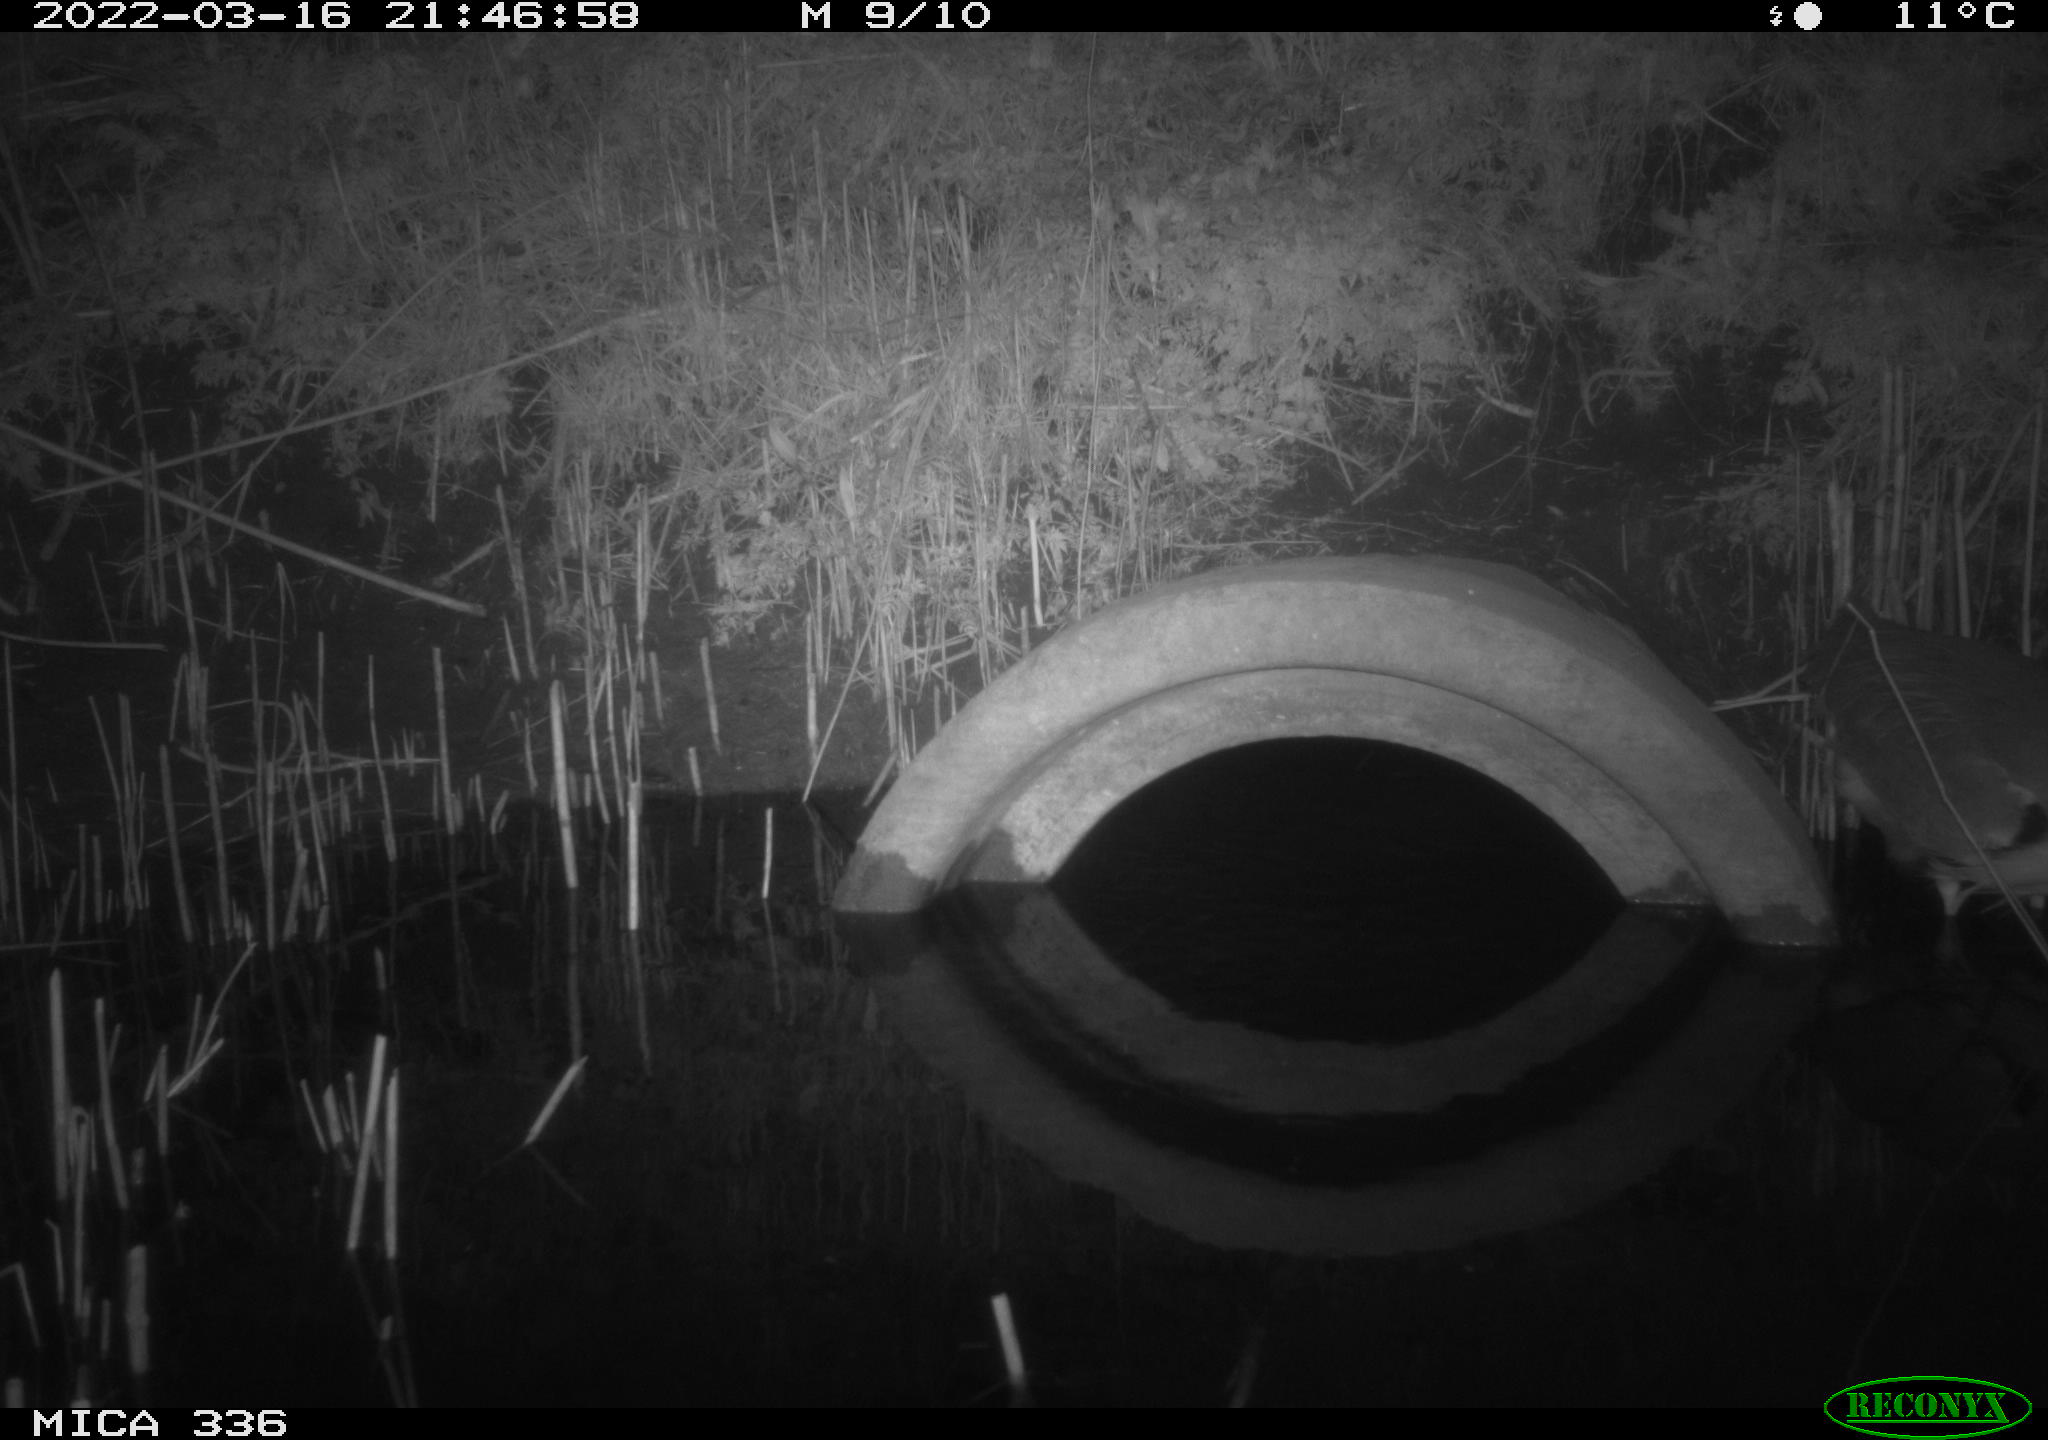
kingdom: Animalia
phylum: Chordata
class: Aves
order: Pelecaniformes
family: Ardeidae
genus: Ardea
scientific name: Ardea cinerea
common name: Grey heron
